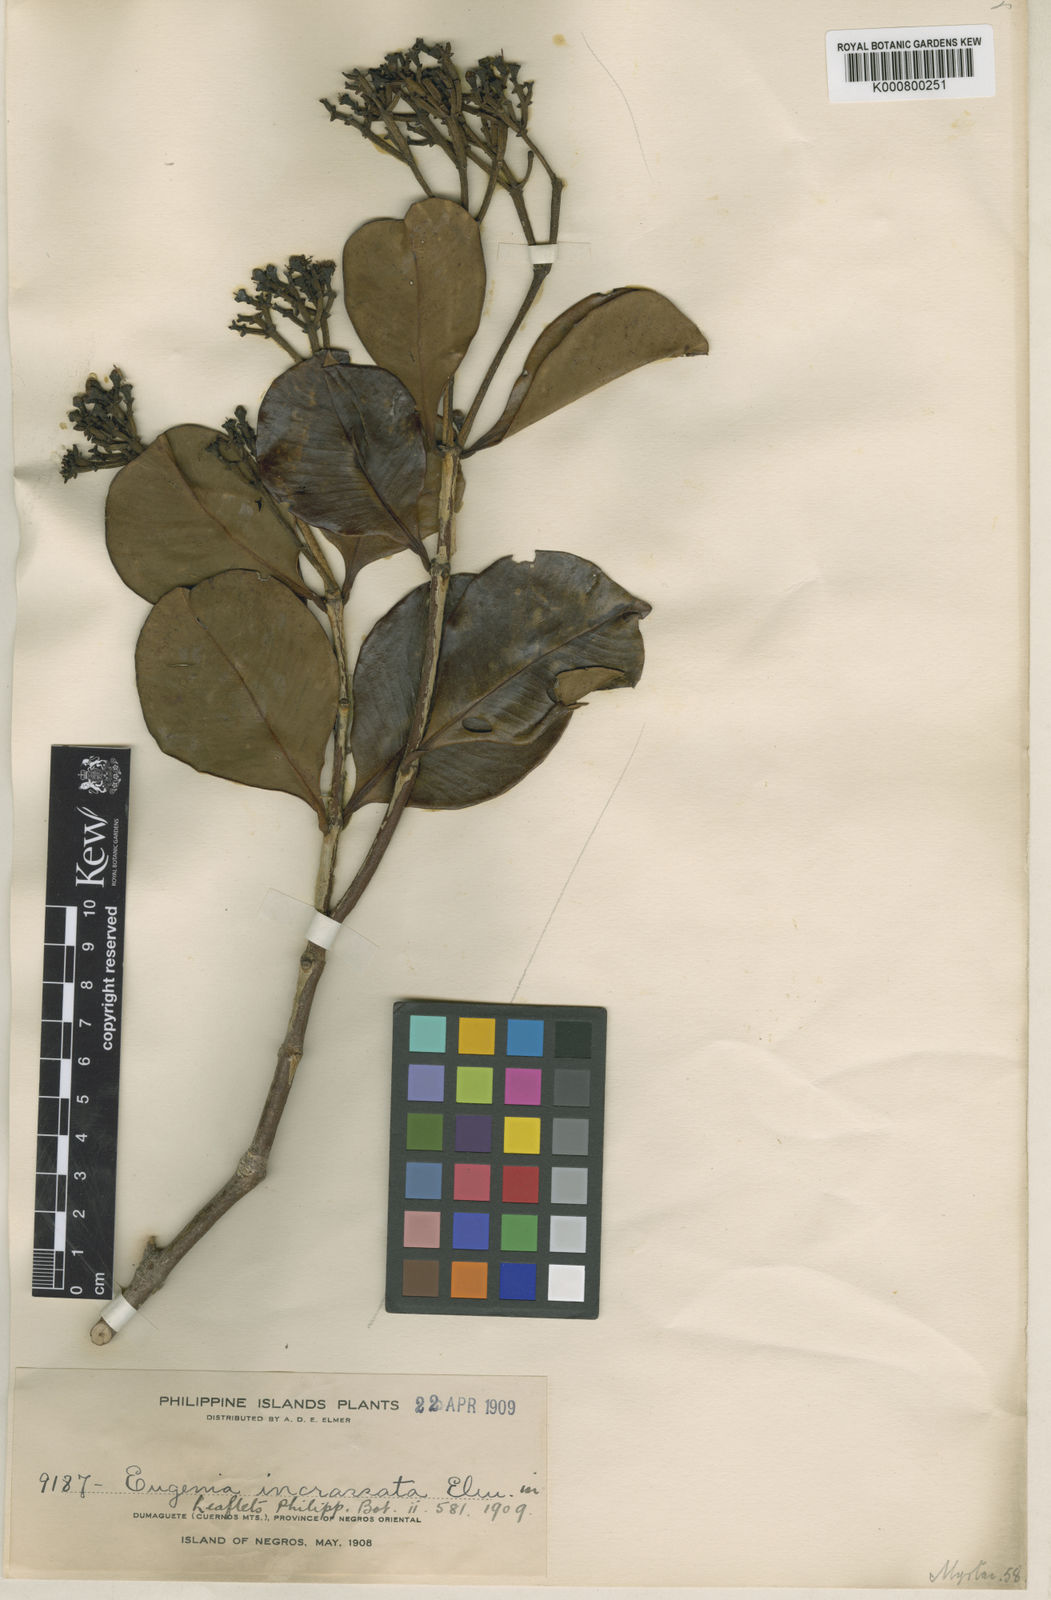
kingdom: Plantae
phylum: Tracheophyta
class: Magnoliopsida
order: Myrtales
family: Myrtaceae
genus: Syzygium
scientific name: Syzygium incrassatum
